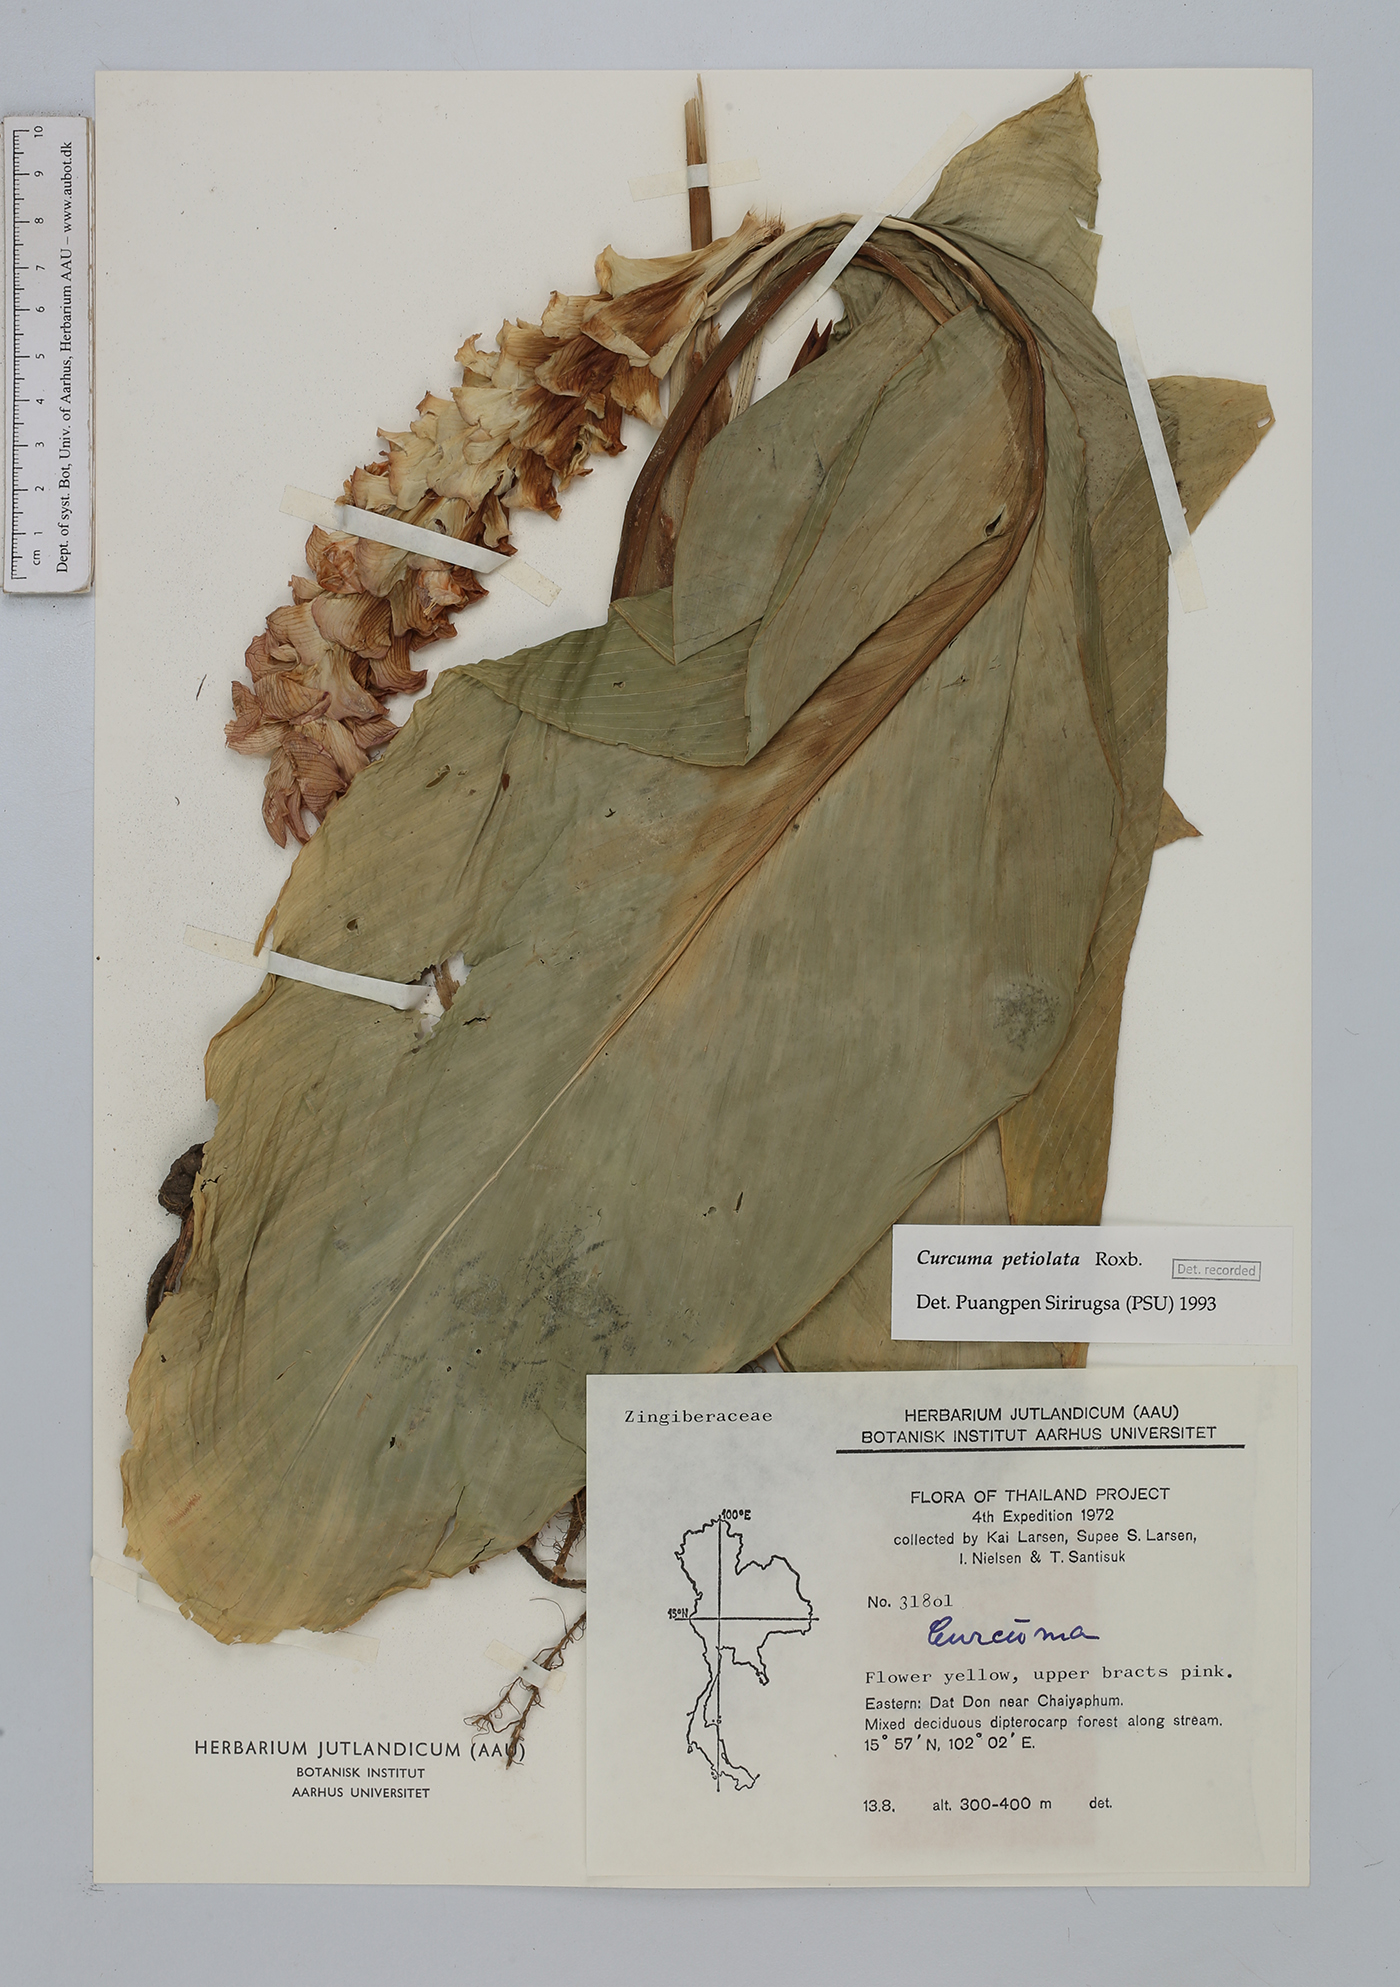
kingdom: Plantae
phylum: Tracheophyta
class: Liliopsida
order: Zingiberales
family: Zingiberaceae
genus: Curcuma
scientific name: Curcuma petiolata
